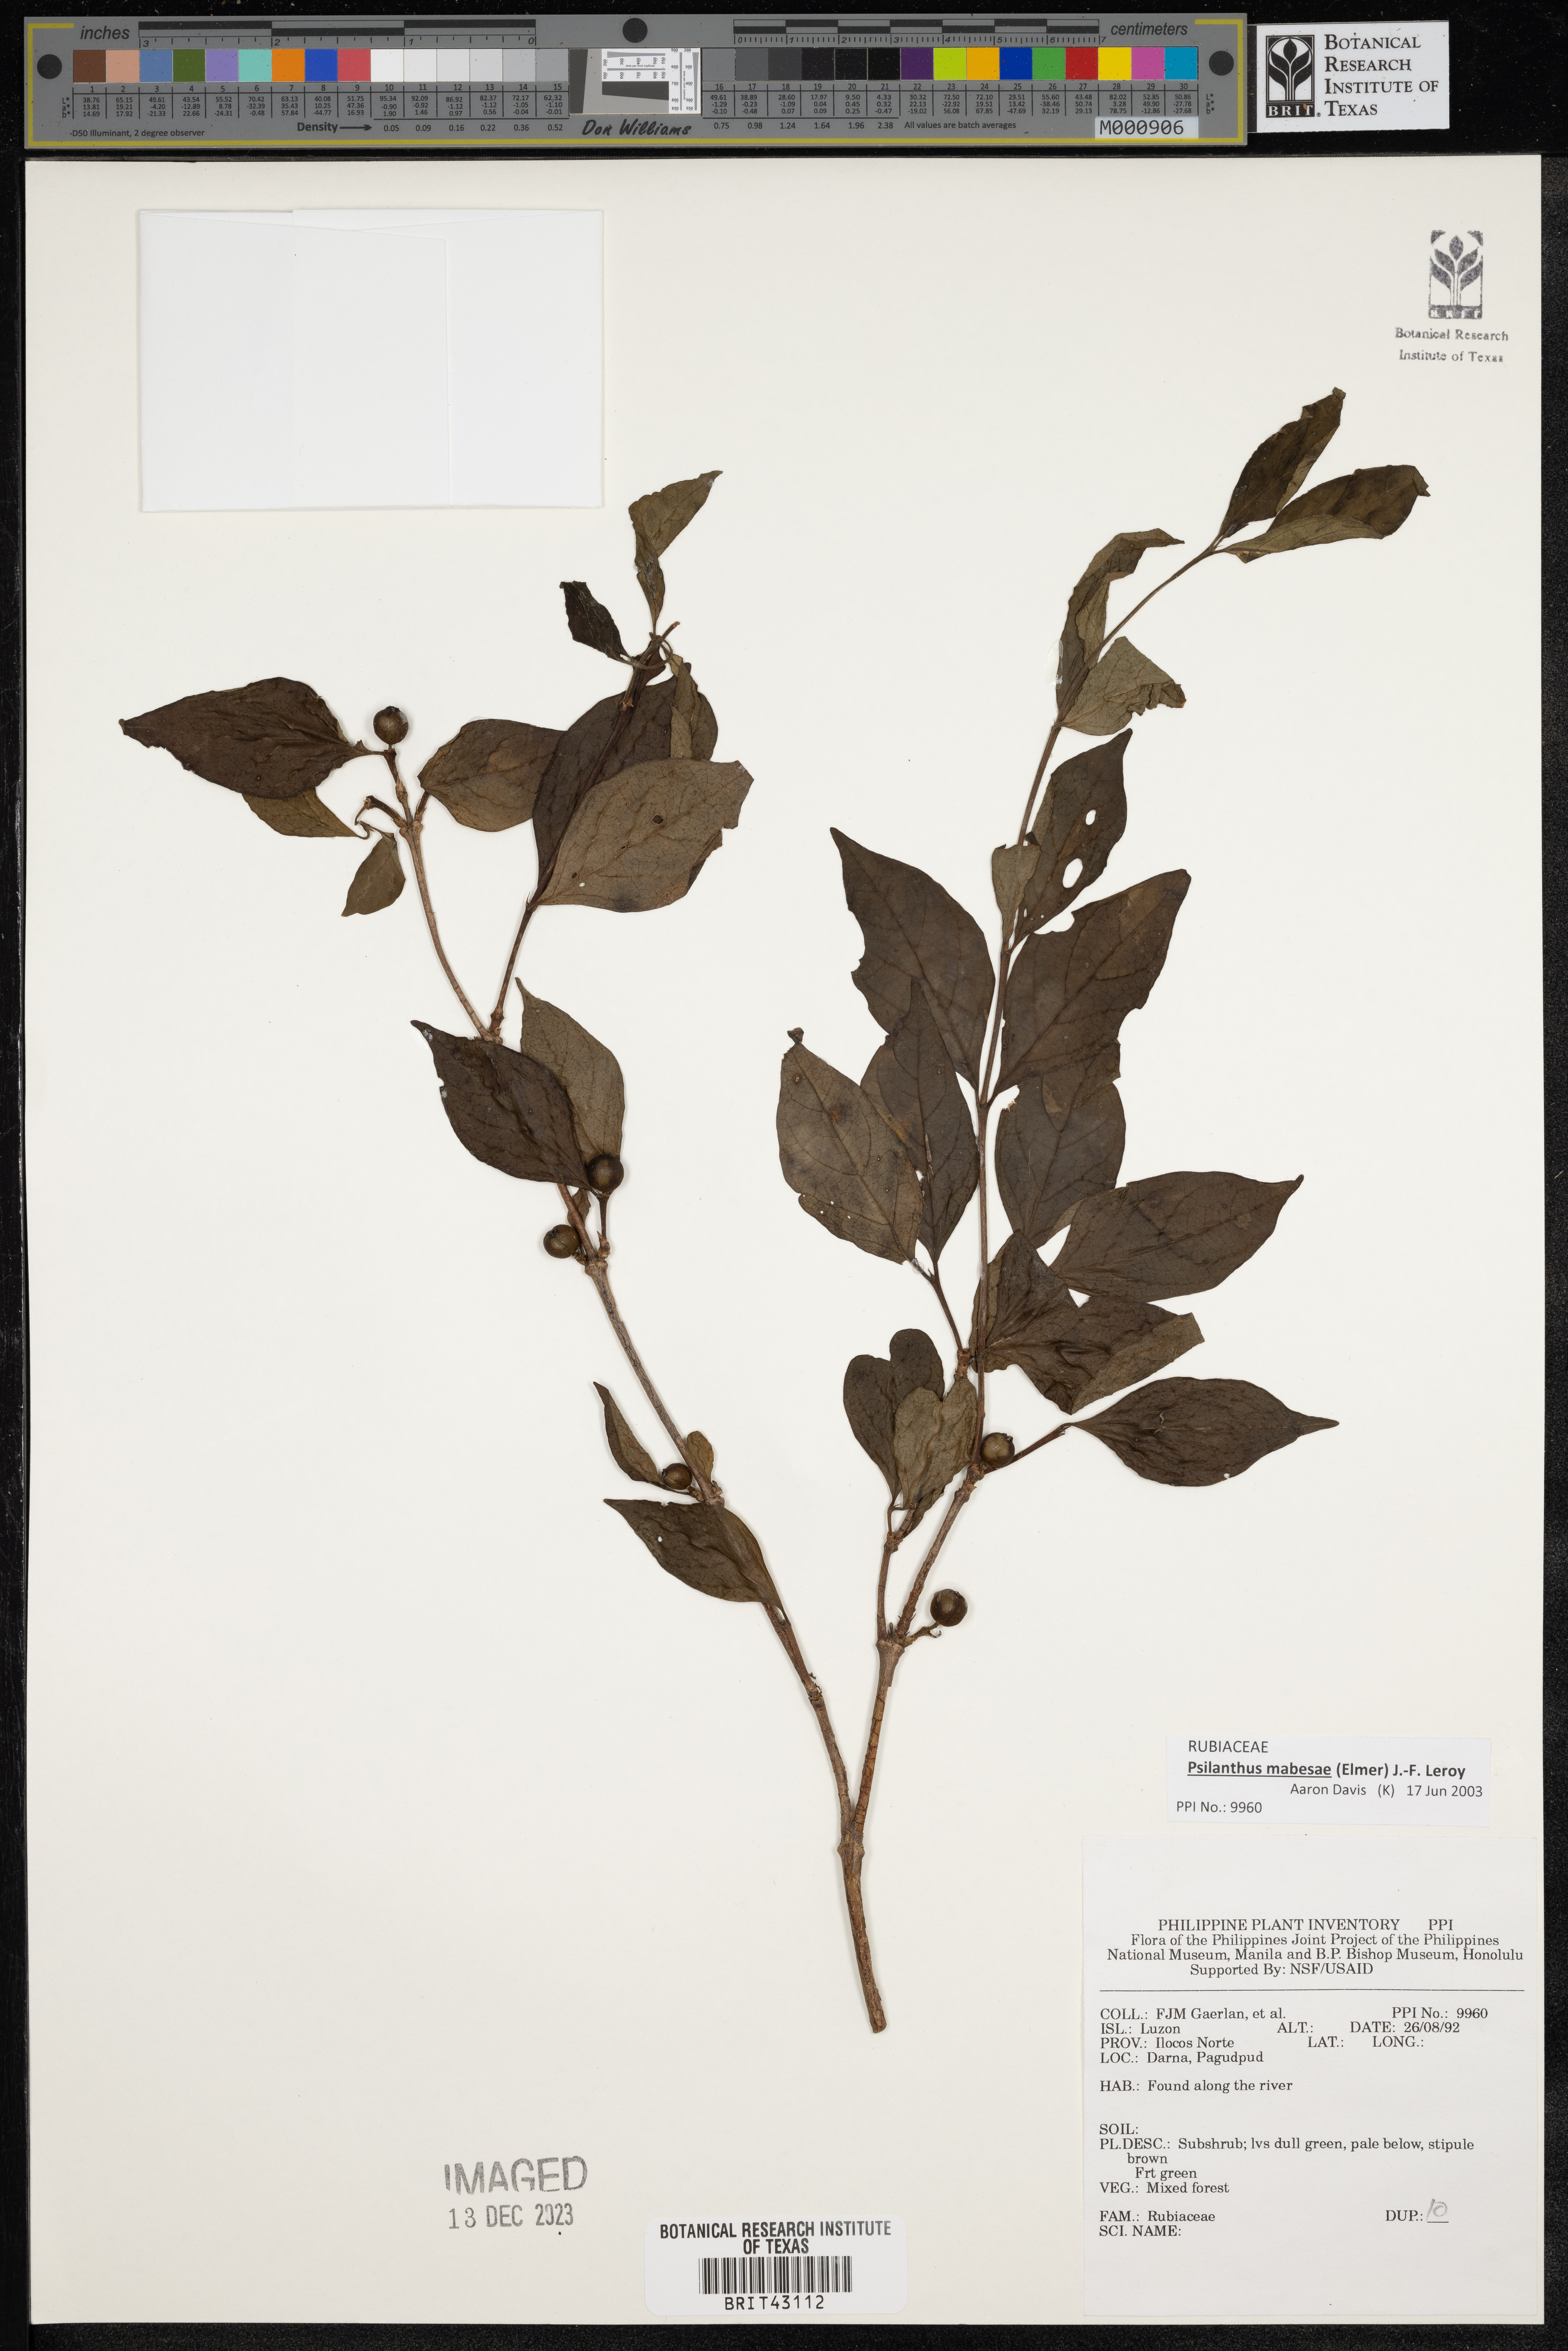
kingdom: Plantae
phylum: Tracheophyta
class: Magnoliopsida
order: Gentianales
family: Rubiaceae
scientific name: Rubiaceae
